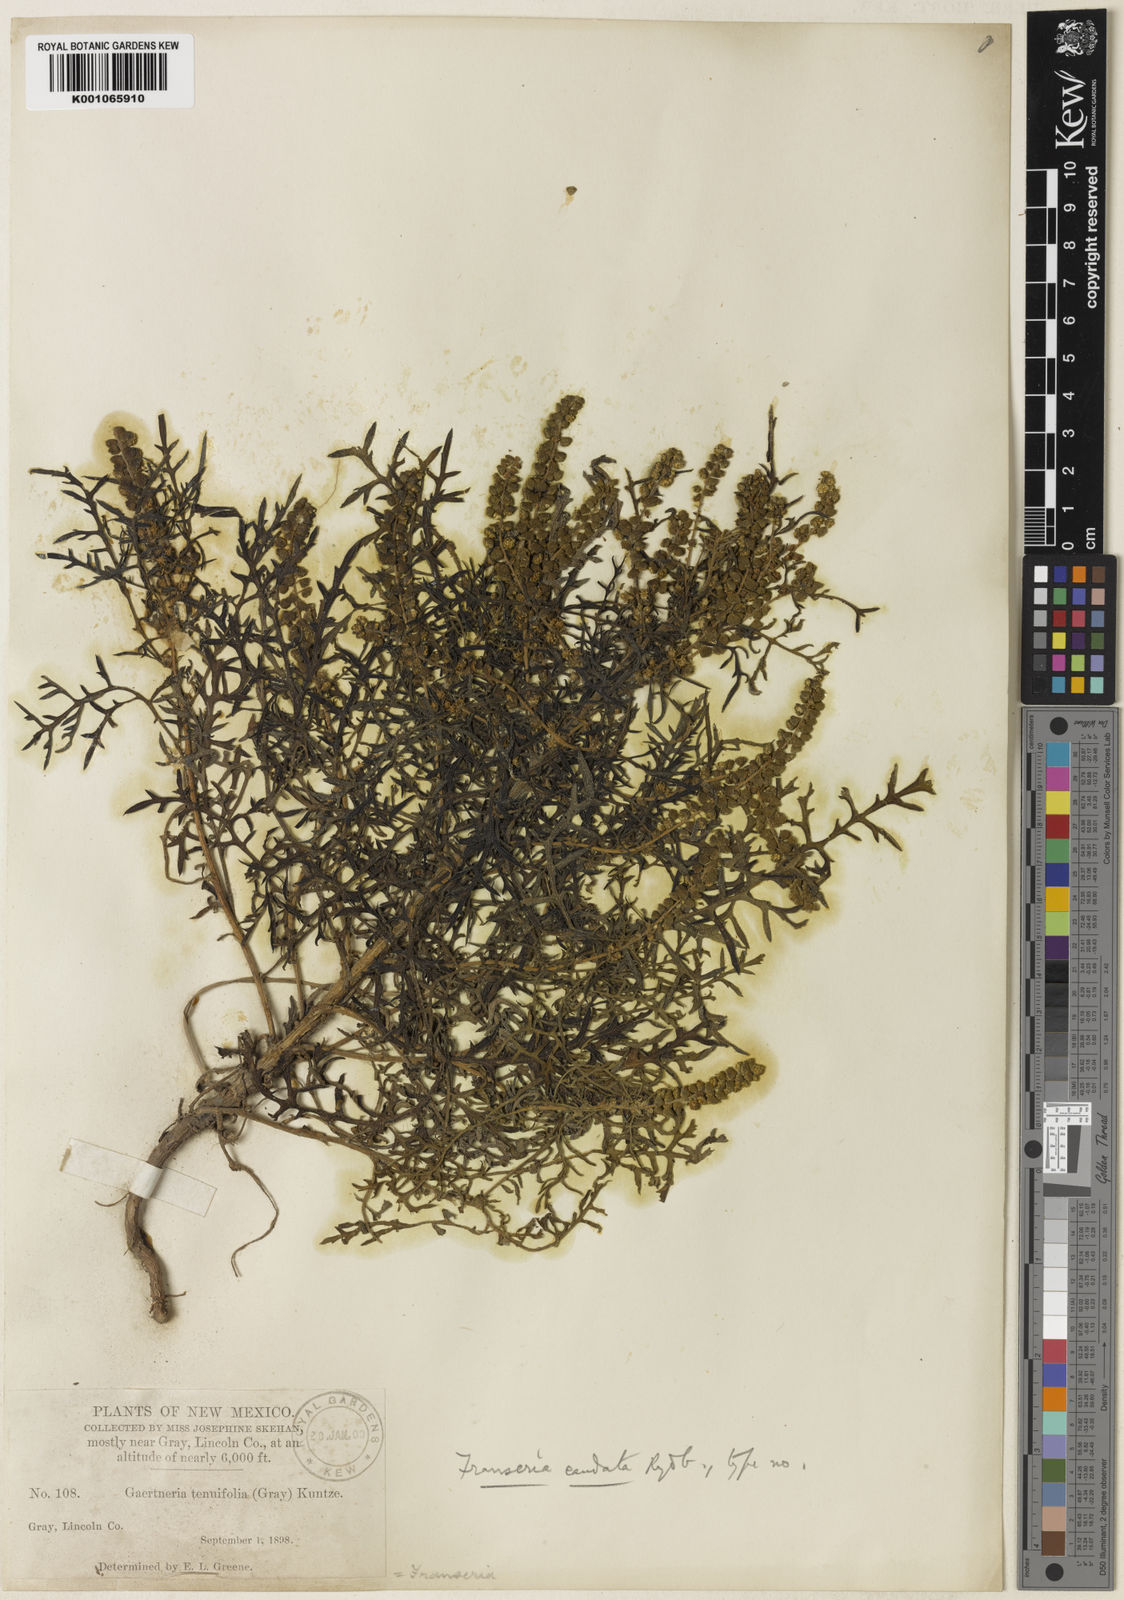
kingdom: Plantae
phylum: Tracheophyta
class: Magnoliopsida
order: Asterales
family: Asteraceae
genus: Ambrosia
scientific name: Ambrosia confertiflora
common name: Bur ragweed
